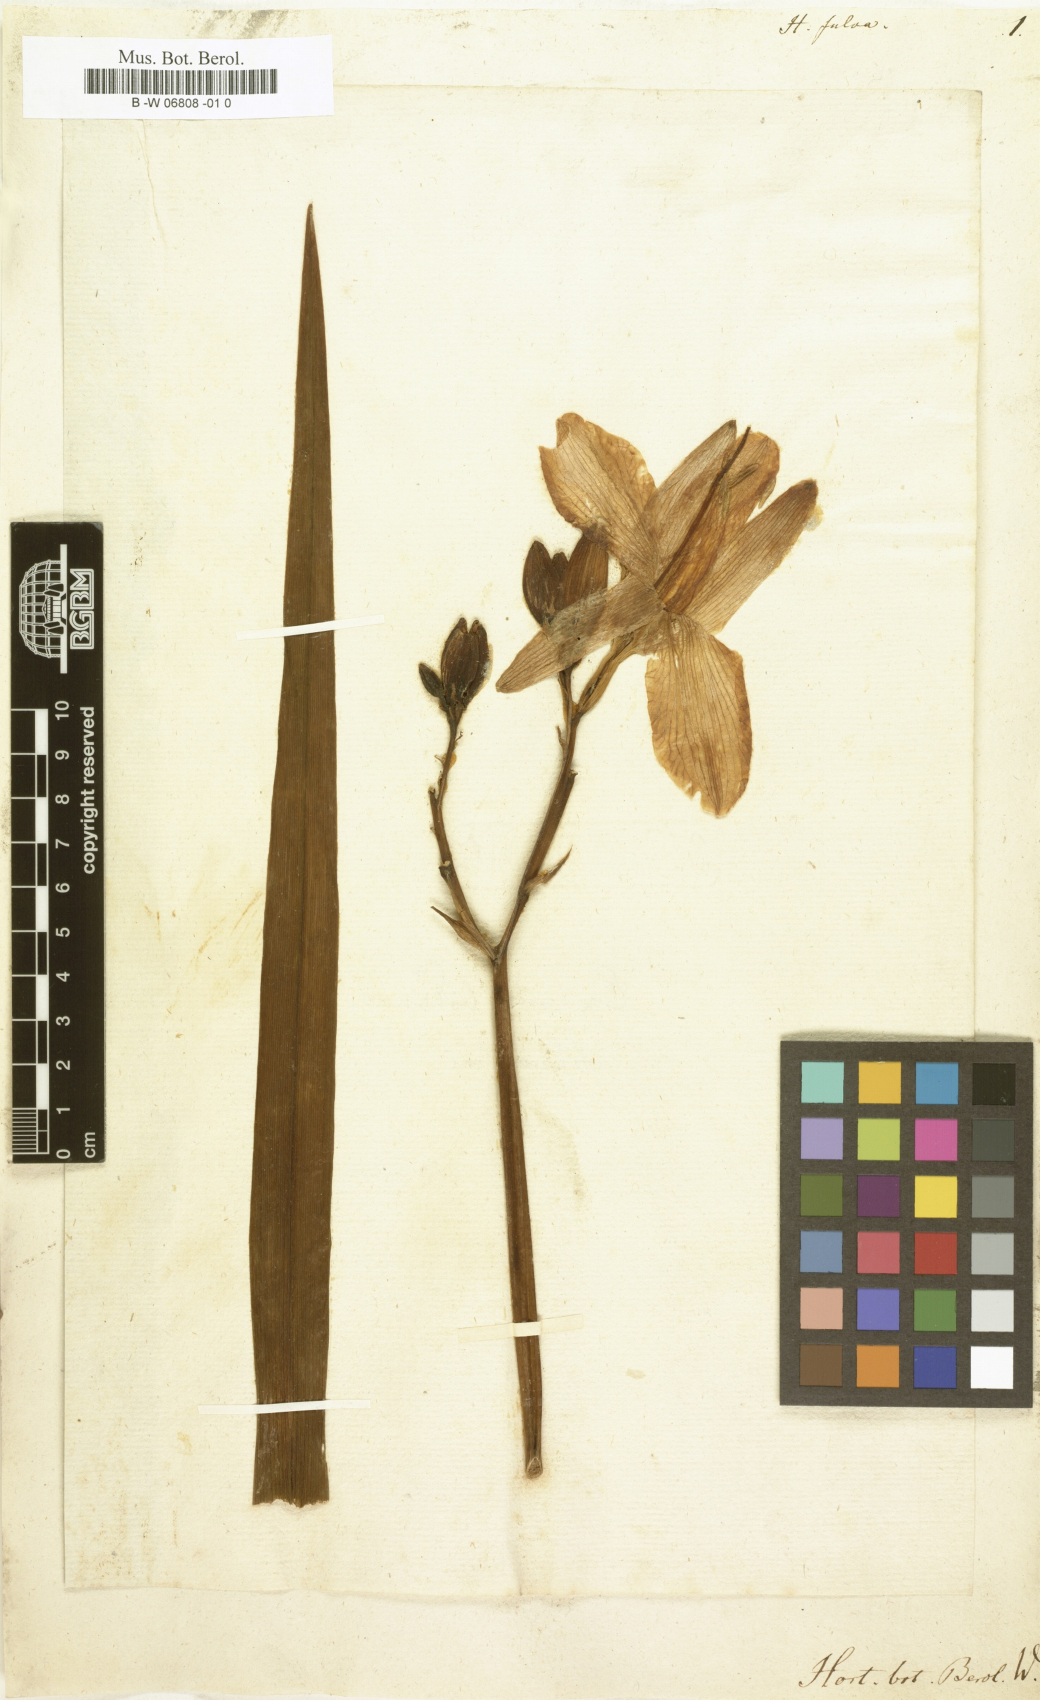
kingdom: Plantae
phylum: Tracheophyta
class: Liliopsida
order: Asparagales
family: Asphodelaceae
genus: Hemerocallis
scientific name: Hemerocallis fulva
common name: Orange day-lily
